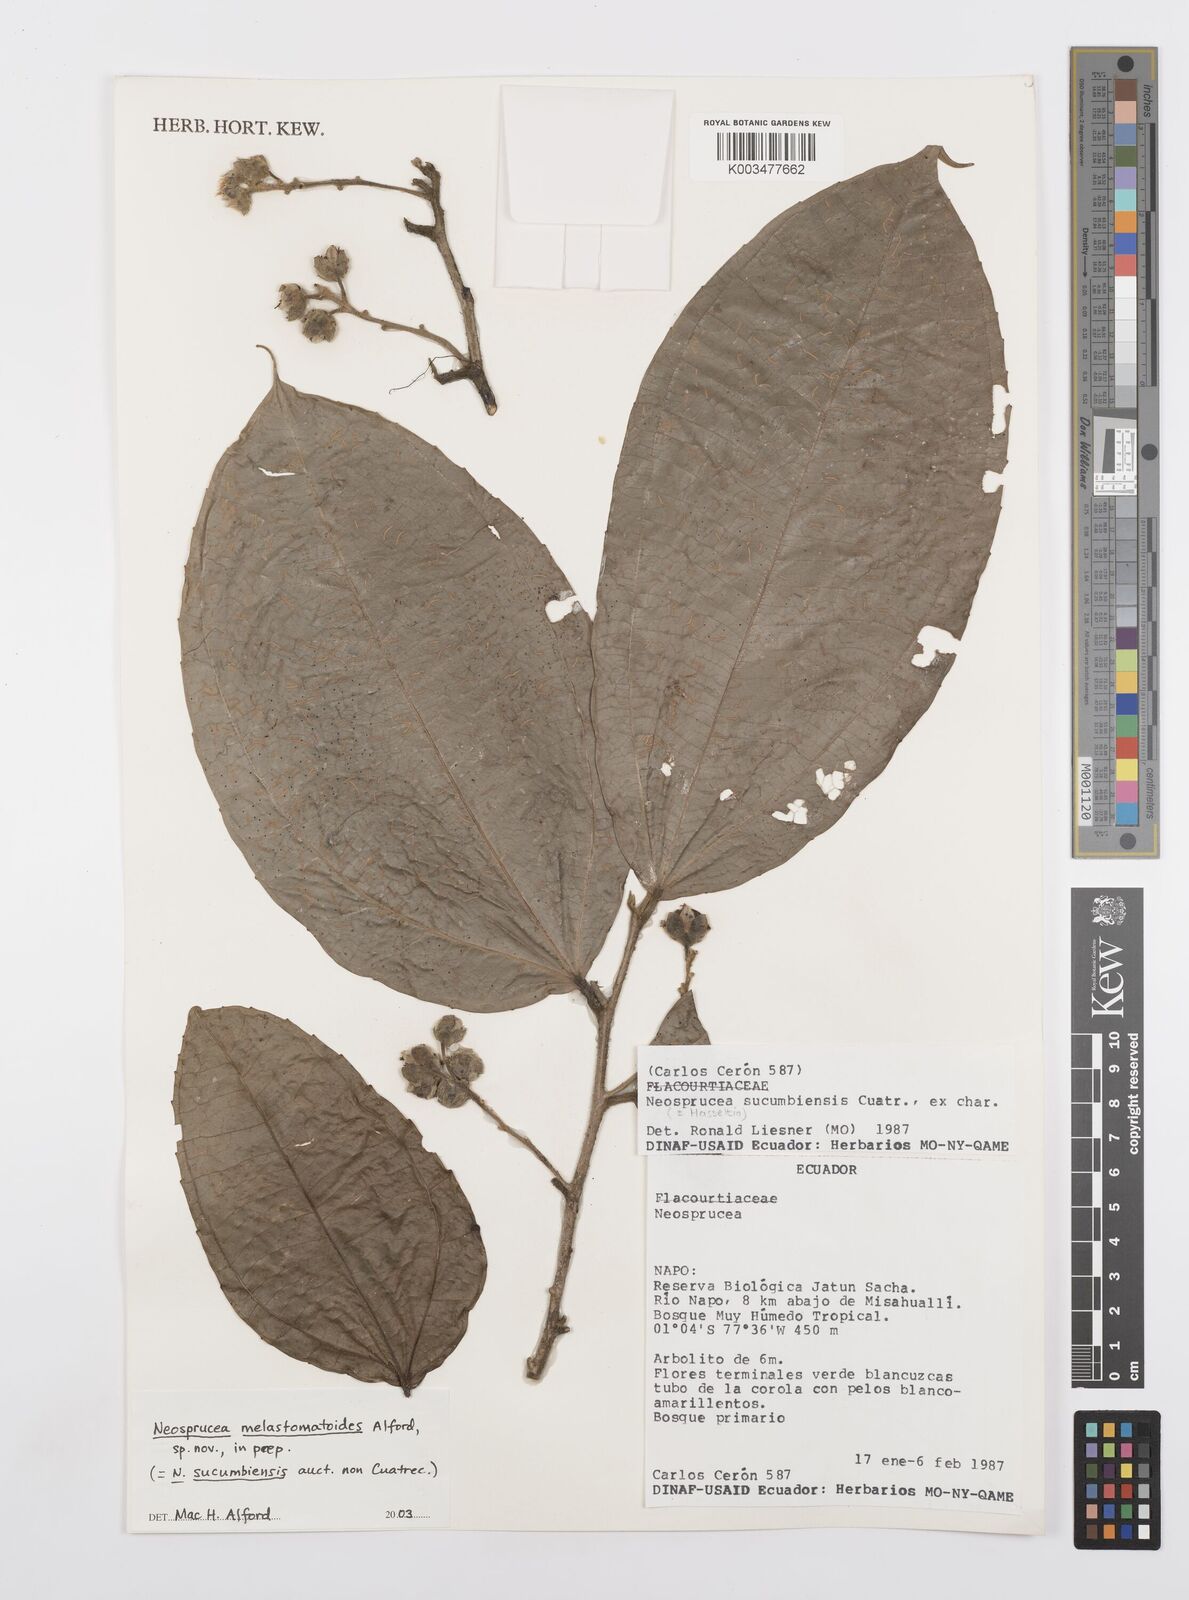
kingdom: Plantae
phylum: Tracheophyta
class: Magnoliopsida
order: Malpighiales
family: Salicaceae
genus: Neosprucea
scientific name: Neosprucea sucumbiensis
